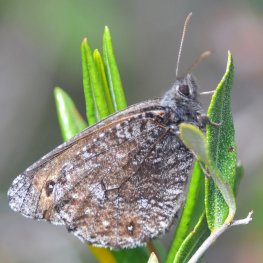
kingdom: Animalia
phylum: Arthropoda
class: Insecta
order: Lepidoptera
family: Nymphalidae
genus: Oeneis
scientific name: Oeneis jutta
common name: Jutta Arctic
